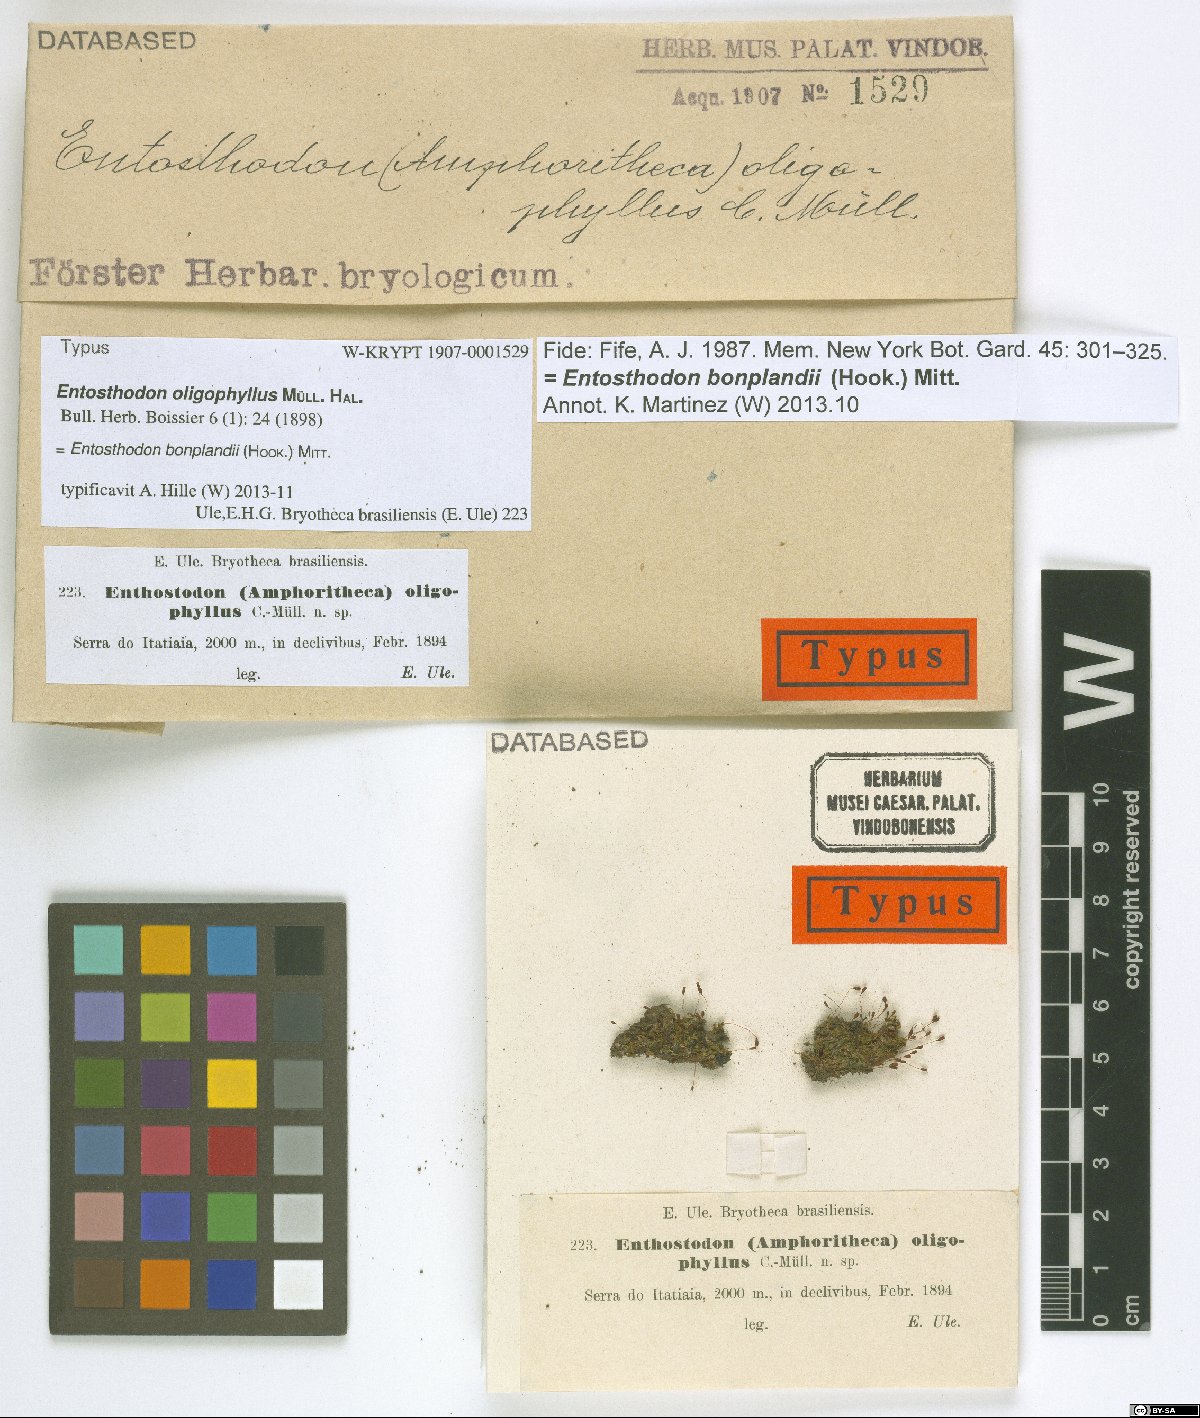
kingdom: Plantae
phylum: Bryophyta
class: Bryopsida
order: Funariales
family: Funariaceae
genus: Entosthodon
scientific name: Entosthodon bonplandii
